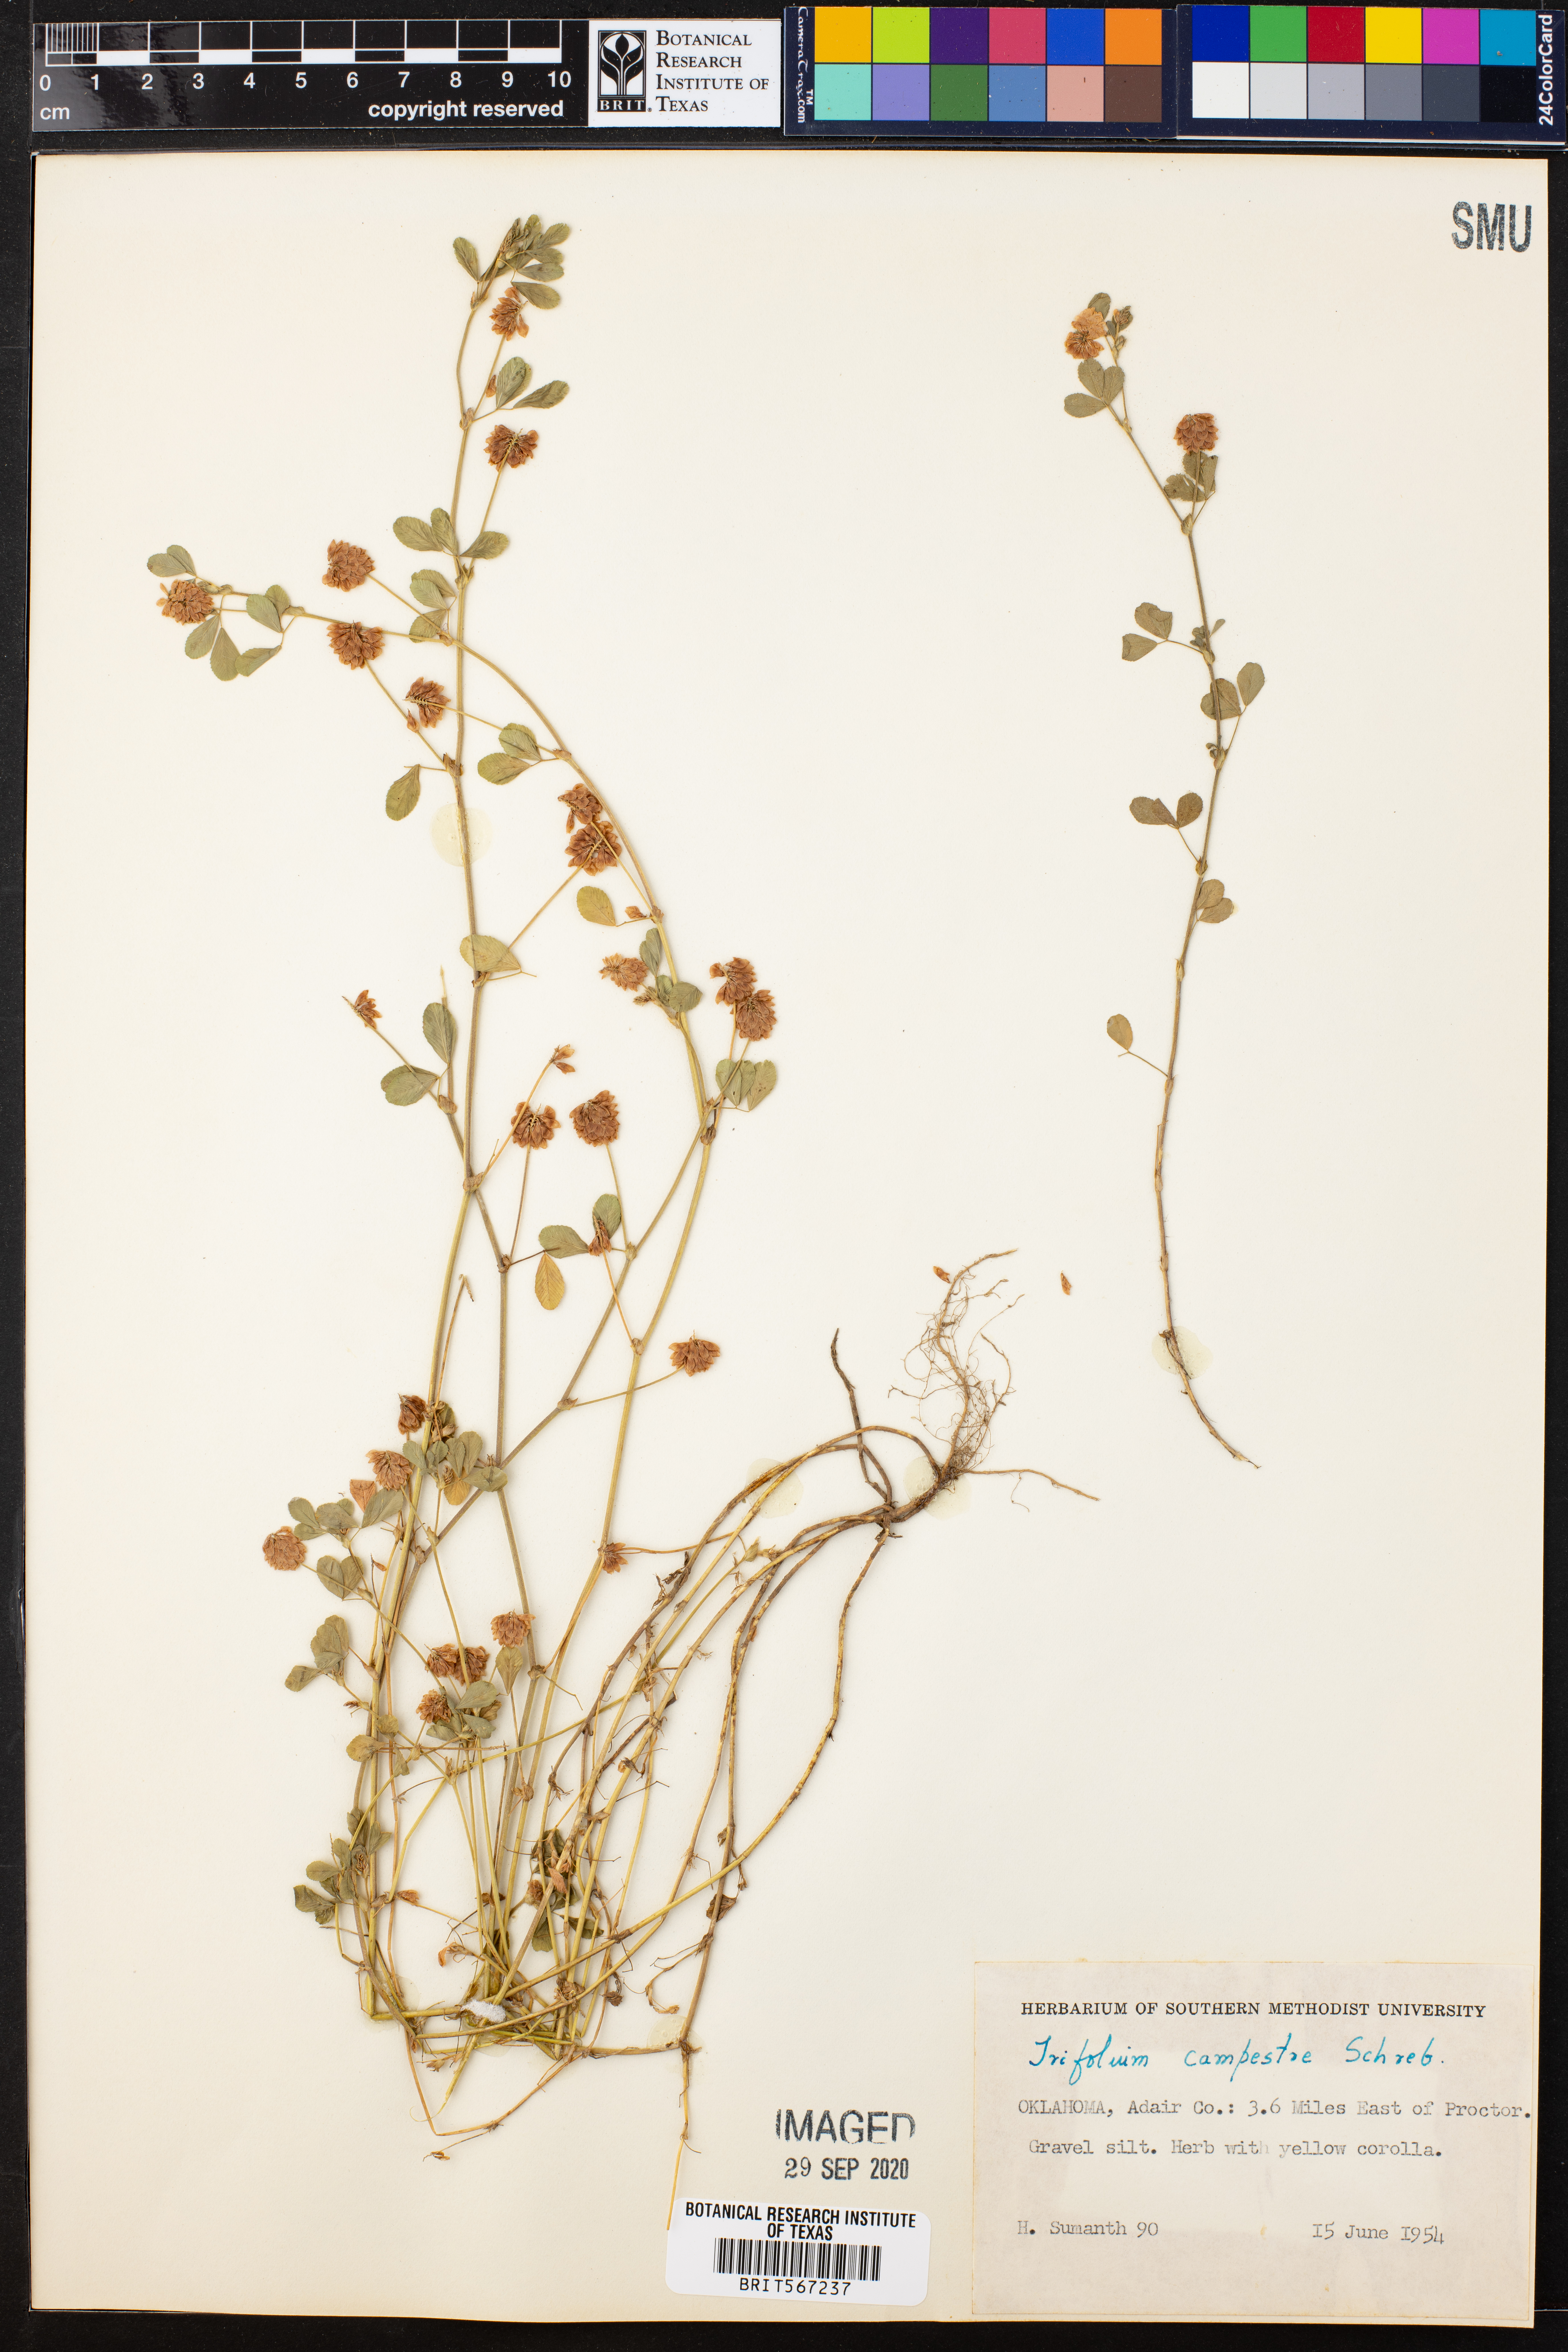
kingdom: Plantae
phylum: Tracheophyta
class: Magnoliopsida
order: Fabales
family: Fabaceae
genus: Trifolium
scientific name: Trifolium campestre
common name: Field clover
